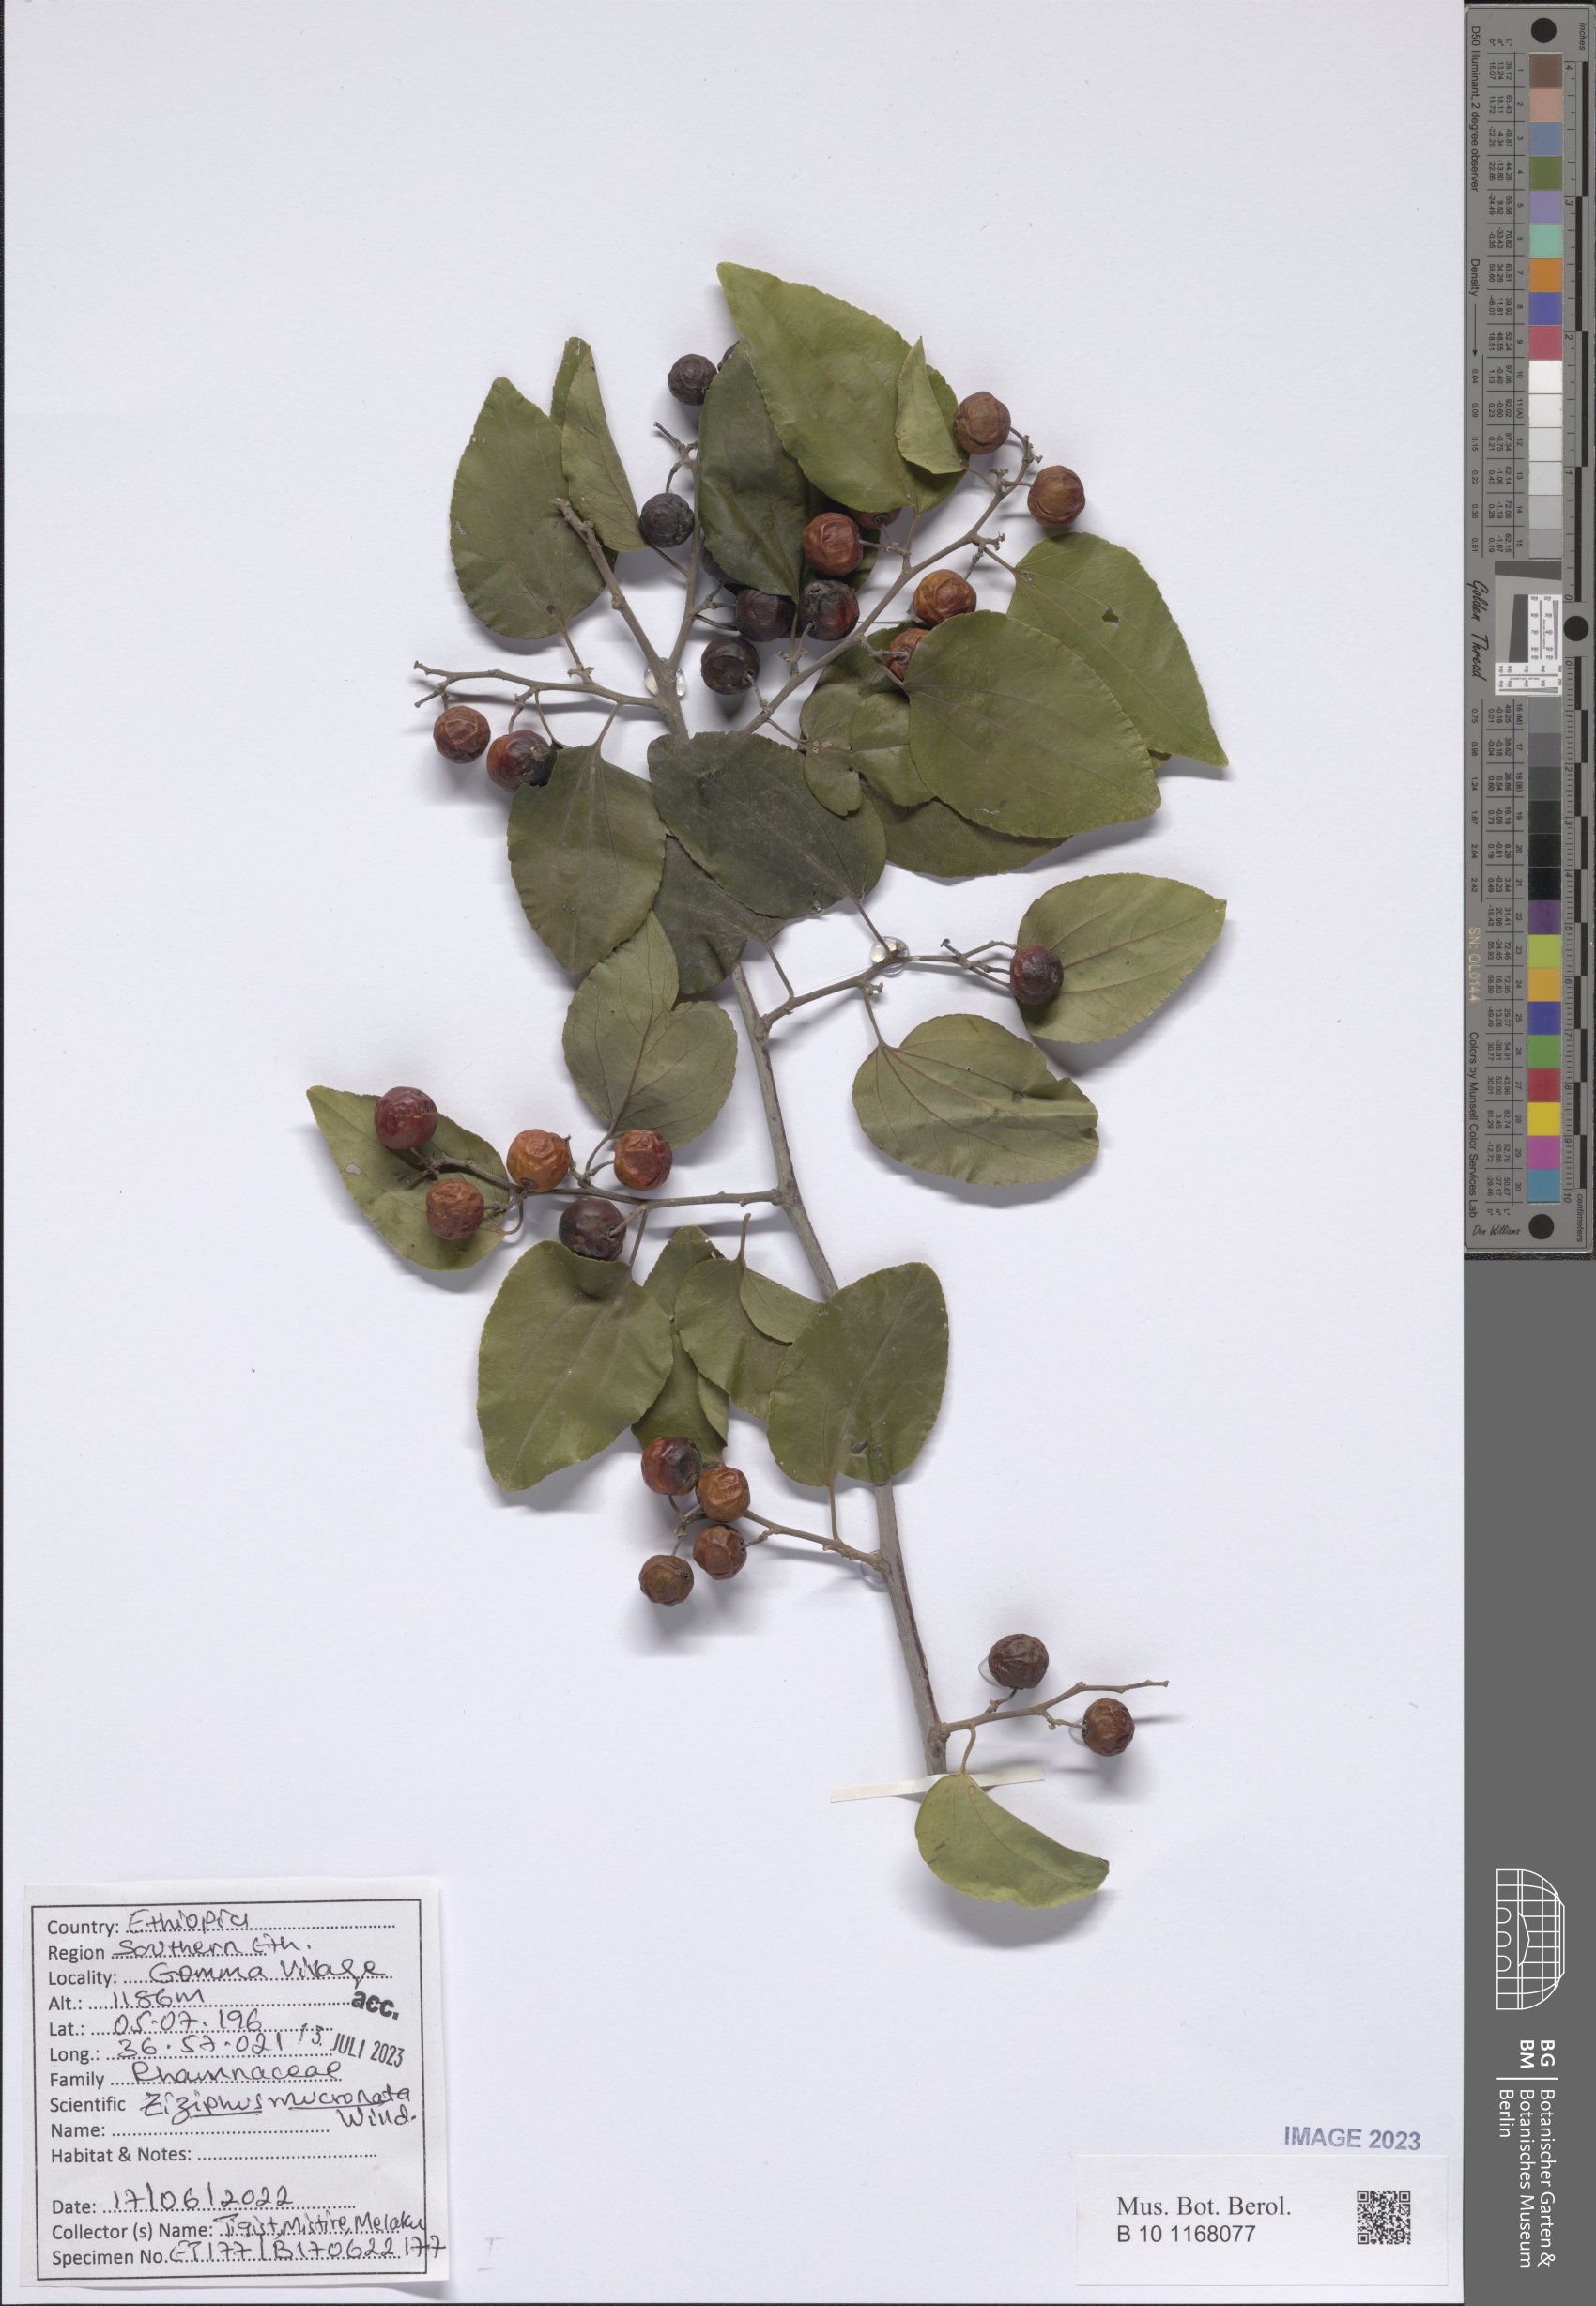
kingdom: Plantae
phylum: Tracheophyta
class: Magnoliopsida
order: Rosales
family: Rhamnaceae
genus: Ziziphus
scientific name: Ziziphus mucronata
